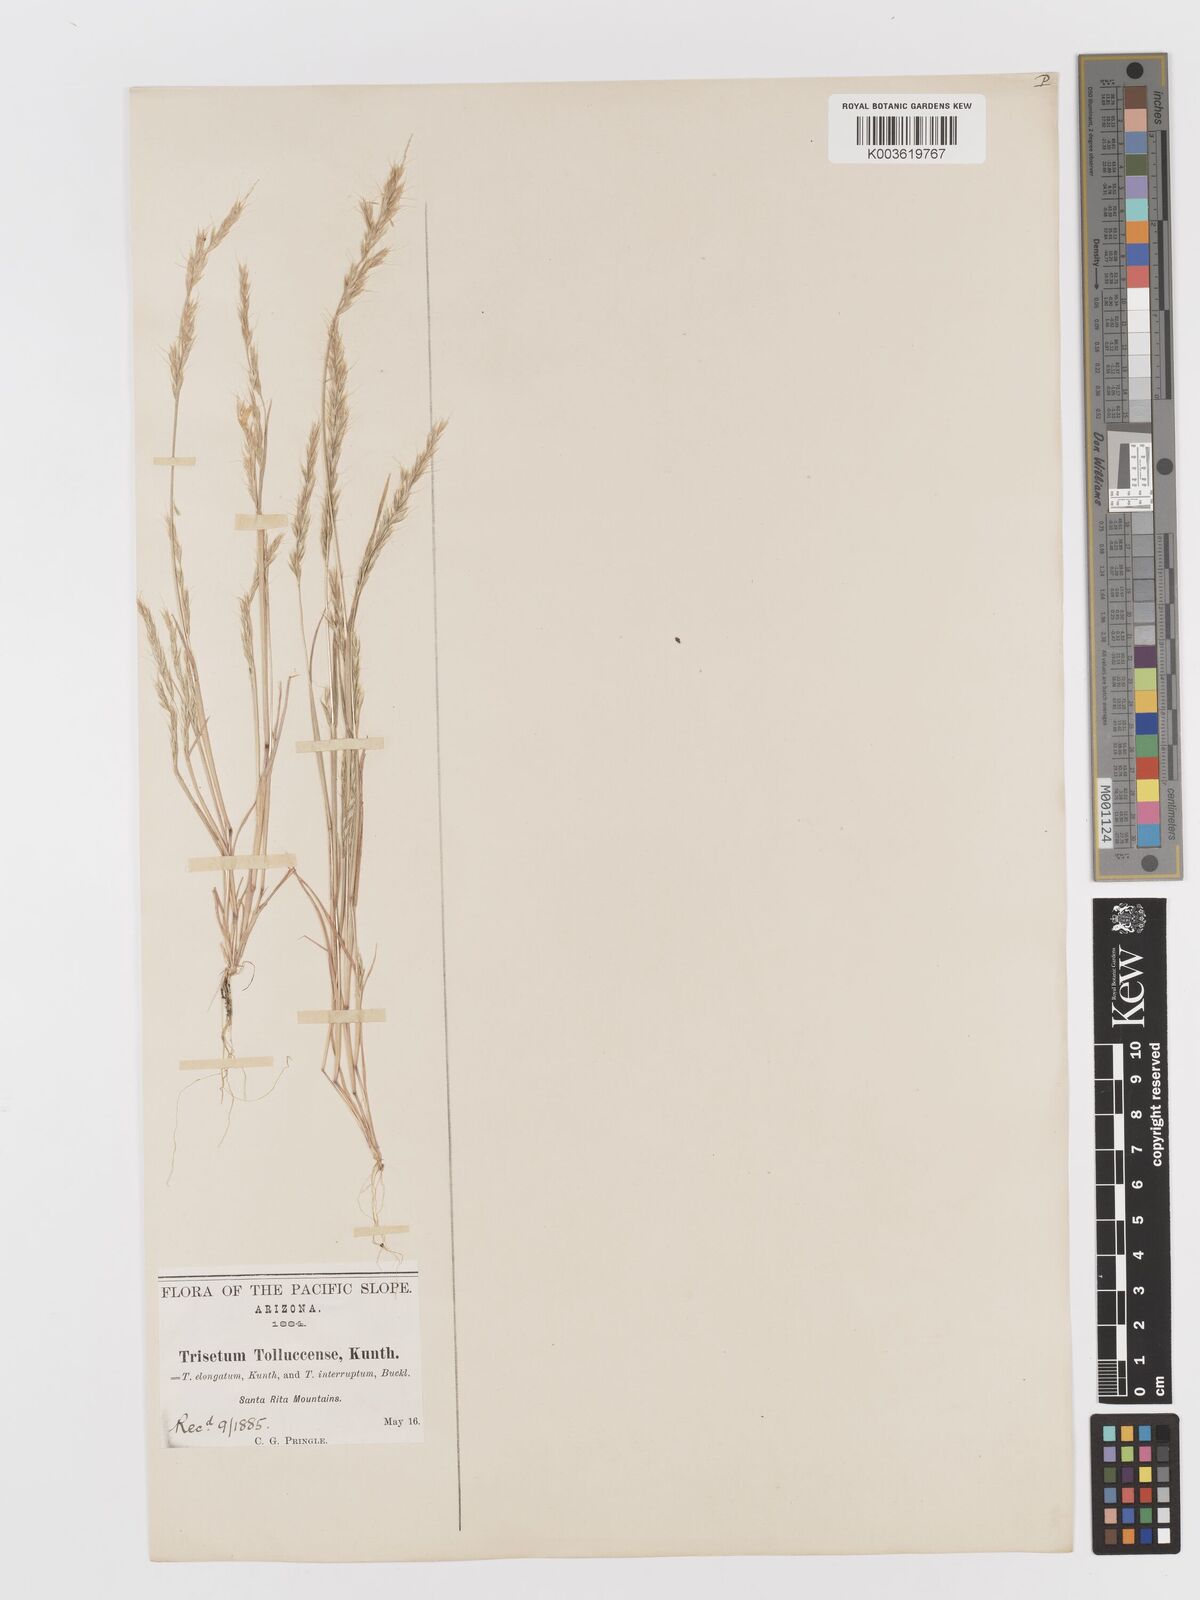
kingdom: Plantae
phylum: Tracheophyta
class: Liliopsida
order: Poales
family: Poaceae
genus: Sphenopholis
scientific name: Sphenopholis interrupta
